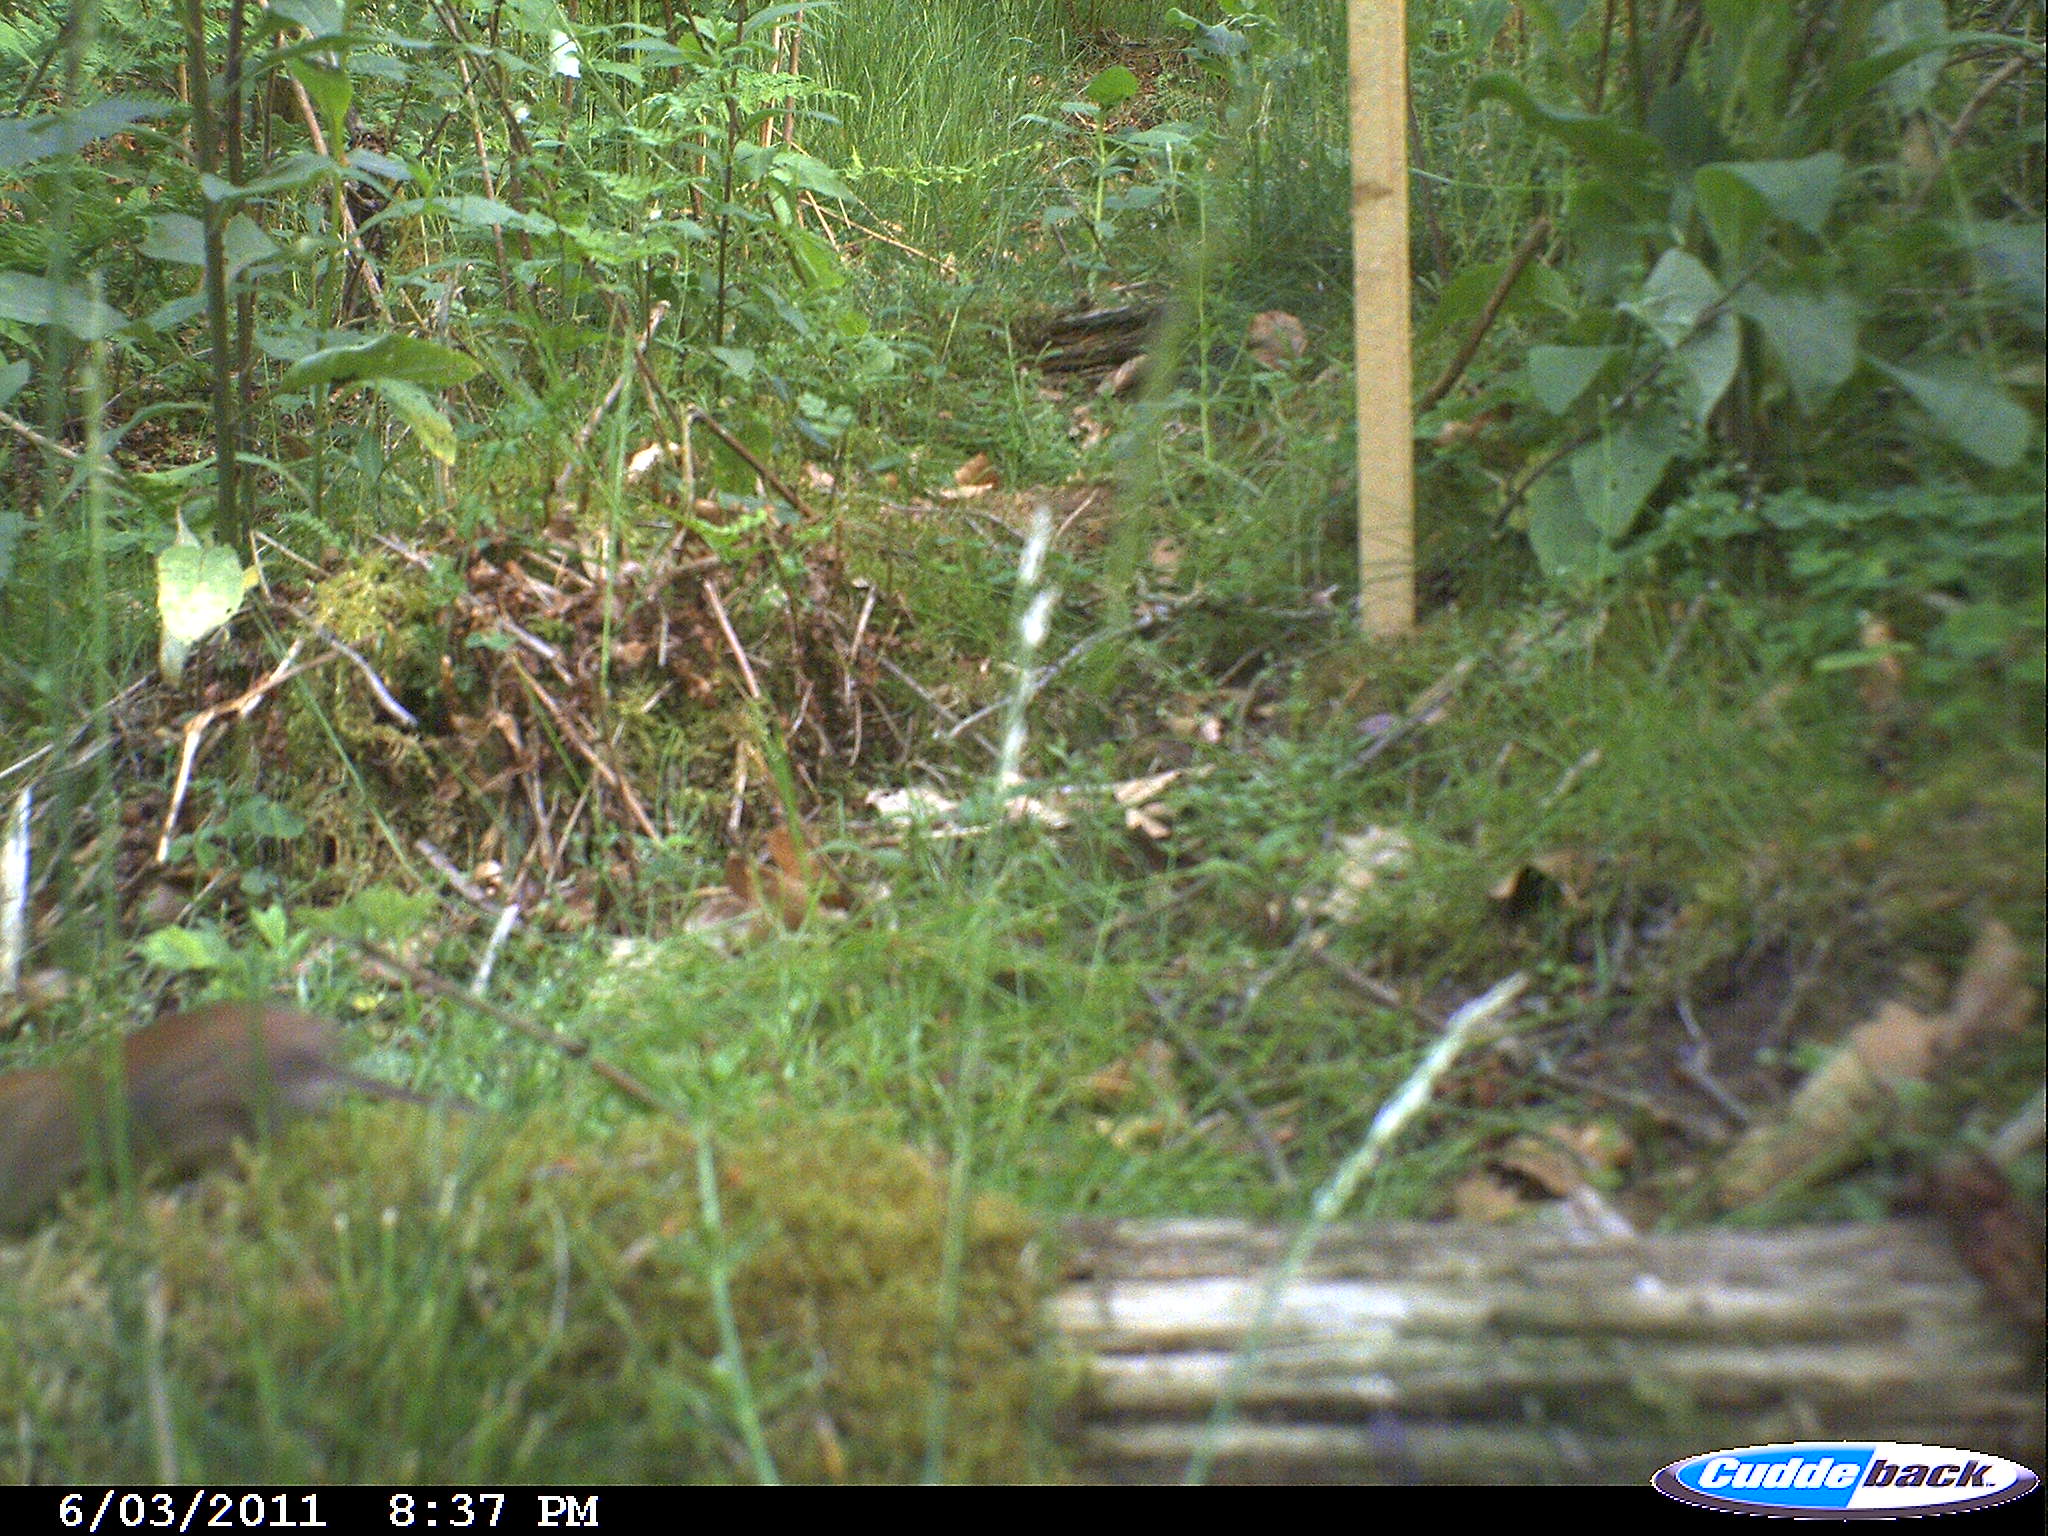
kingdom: Animalia
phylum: Chordata
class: Mammalia
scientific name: Mammalia
